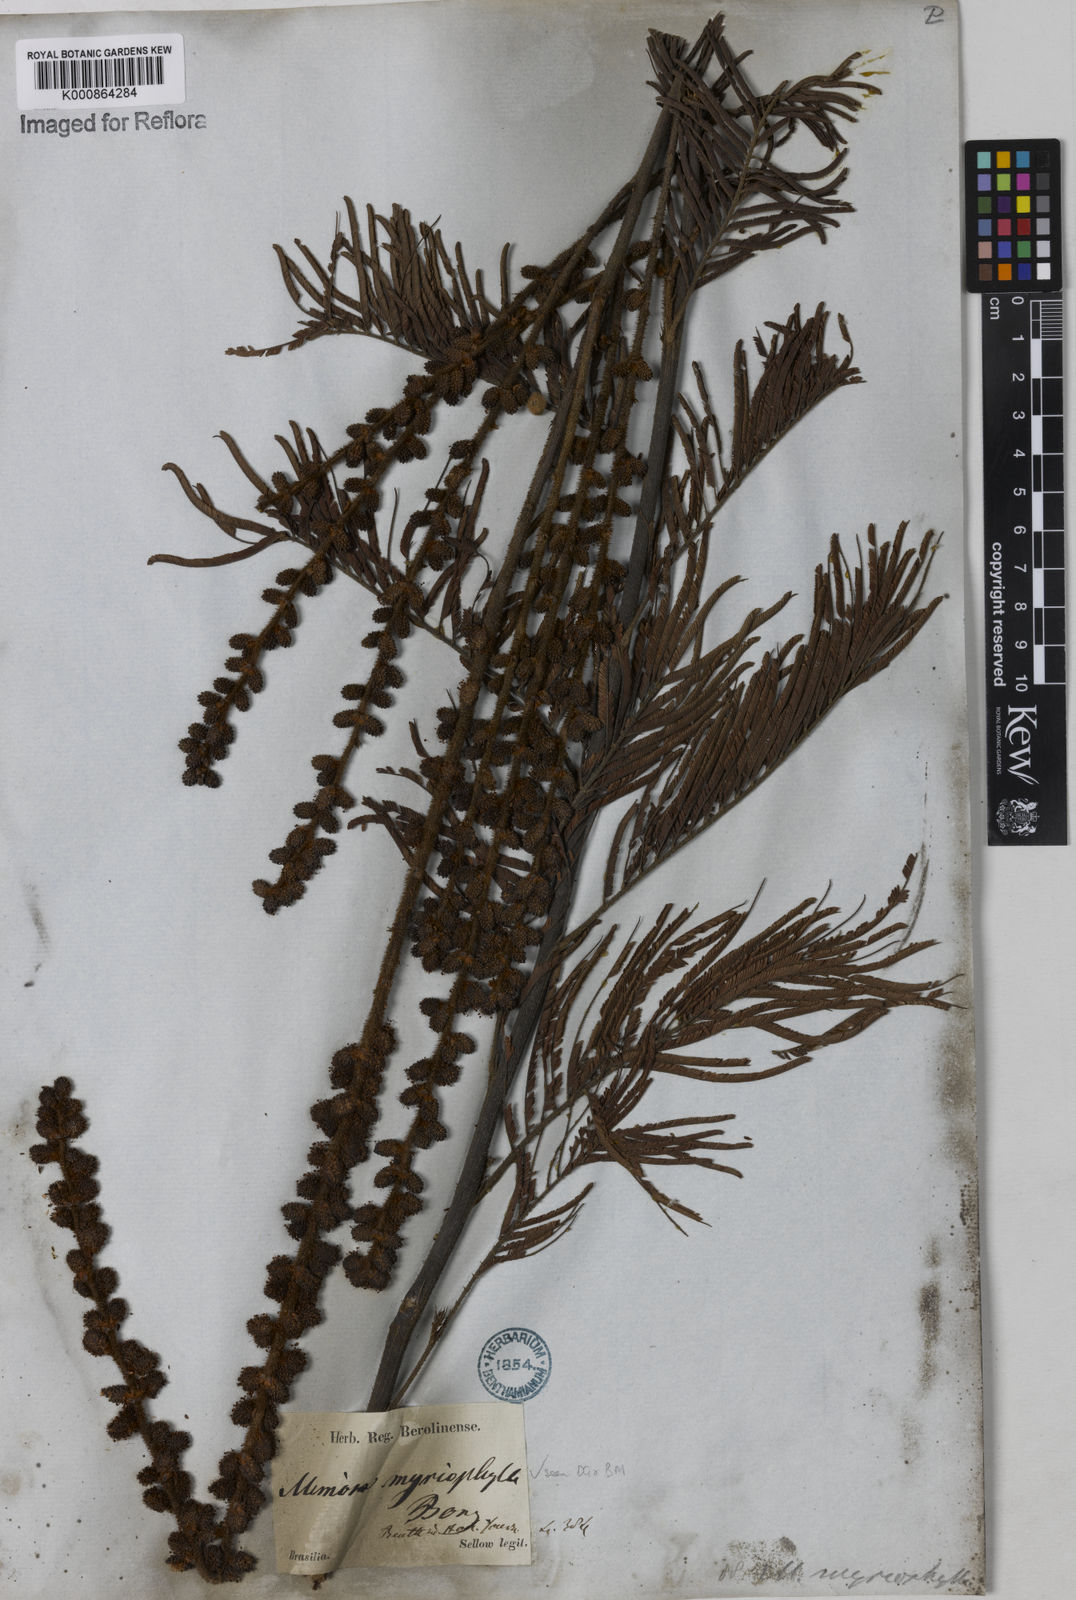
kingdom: Plantae
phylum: Tracheophyta
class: Magnoliopsida
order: Fabales
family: Fabaceae
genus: Mimosa
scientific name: Mimosa
